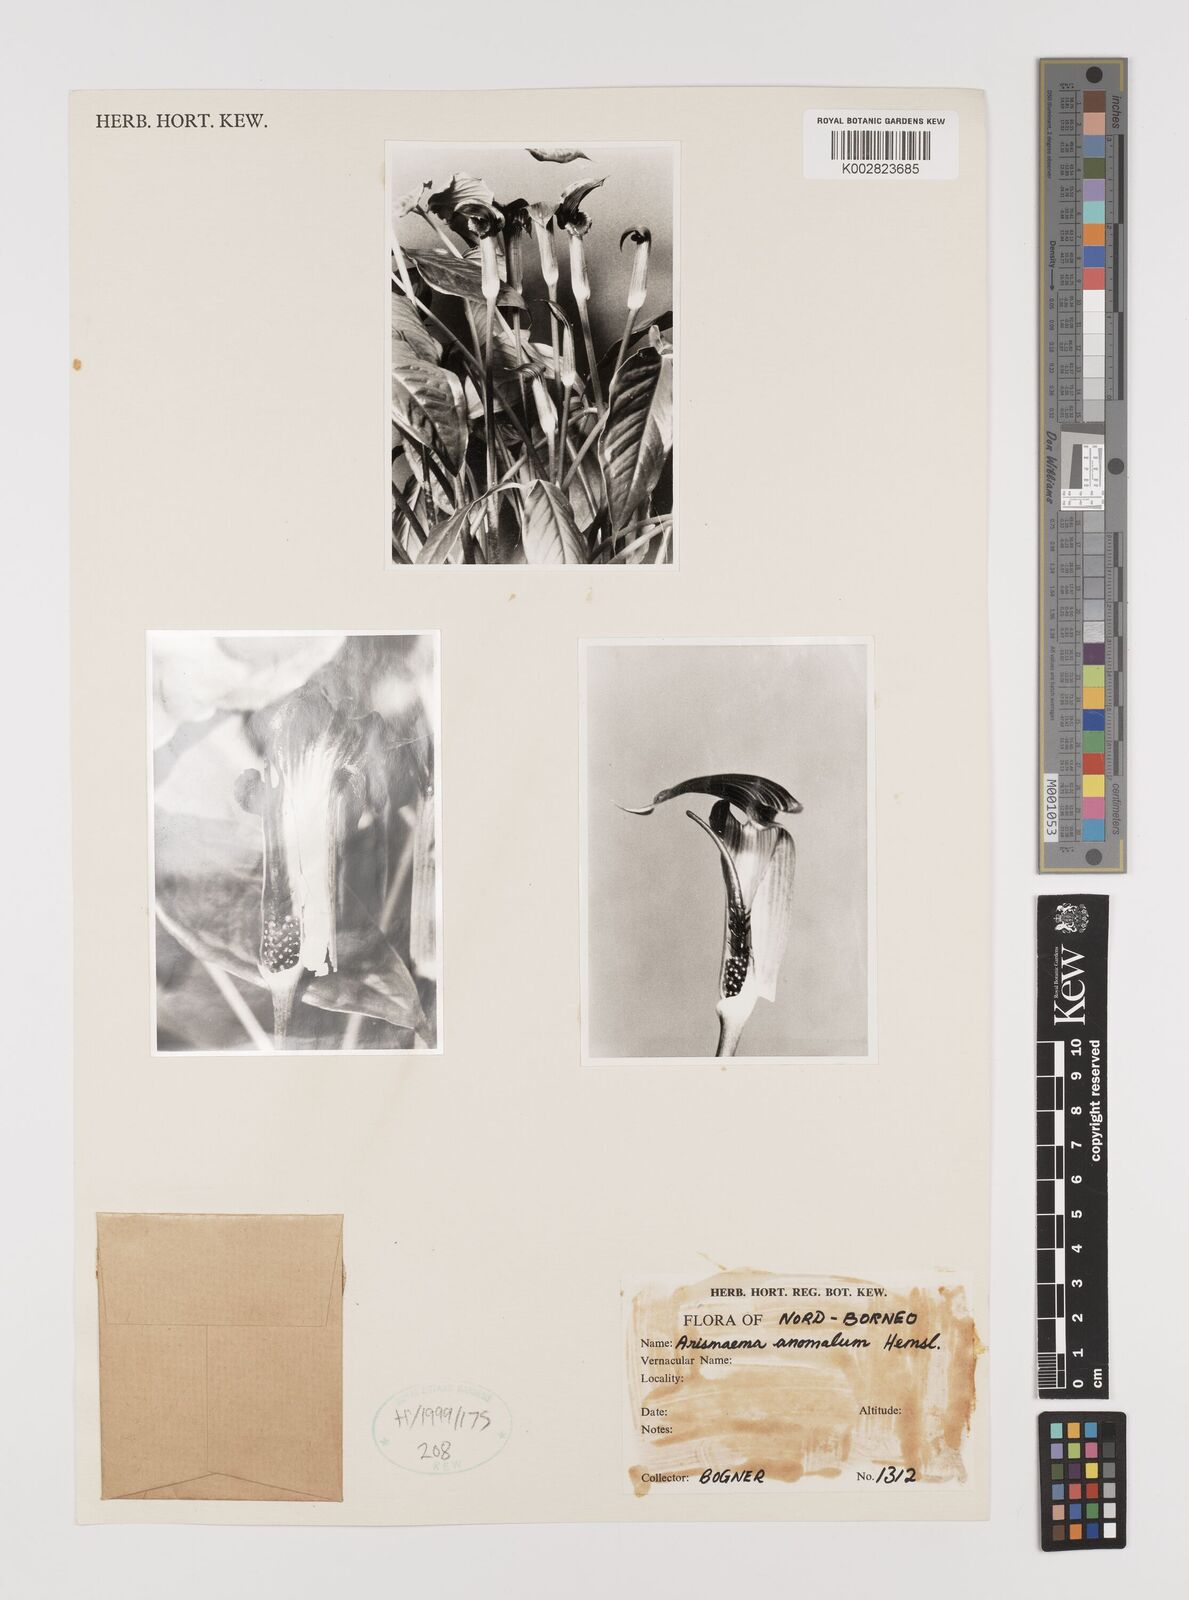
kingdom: Plantae
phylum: Tracheophyta
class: Liliopsida
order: Alismatales
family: Araceae
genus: Arisaema
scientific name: Arisaema anomalum
